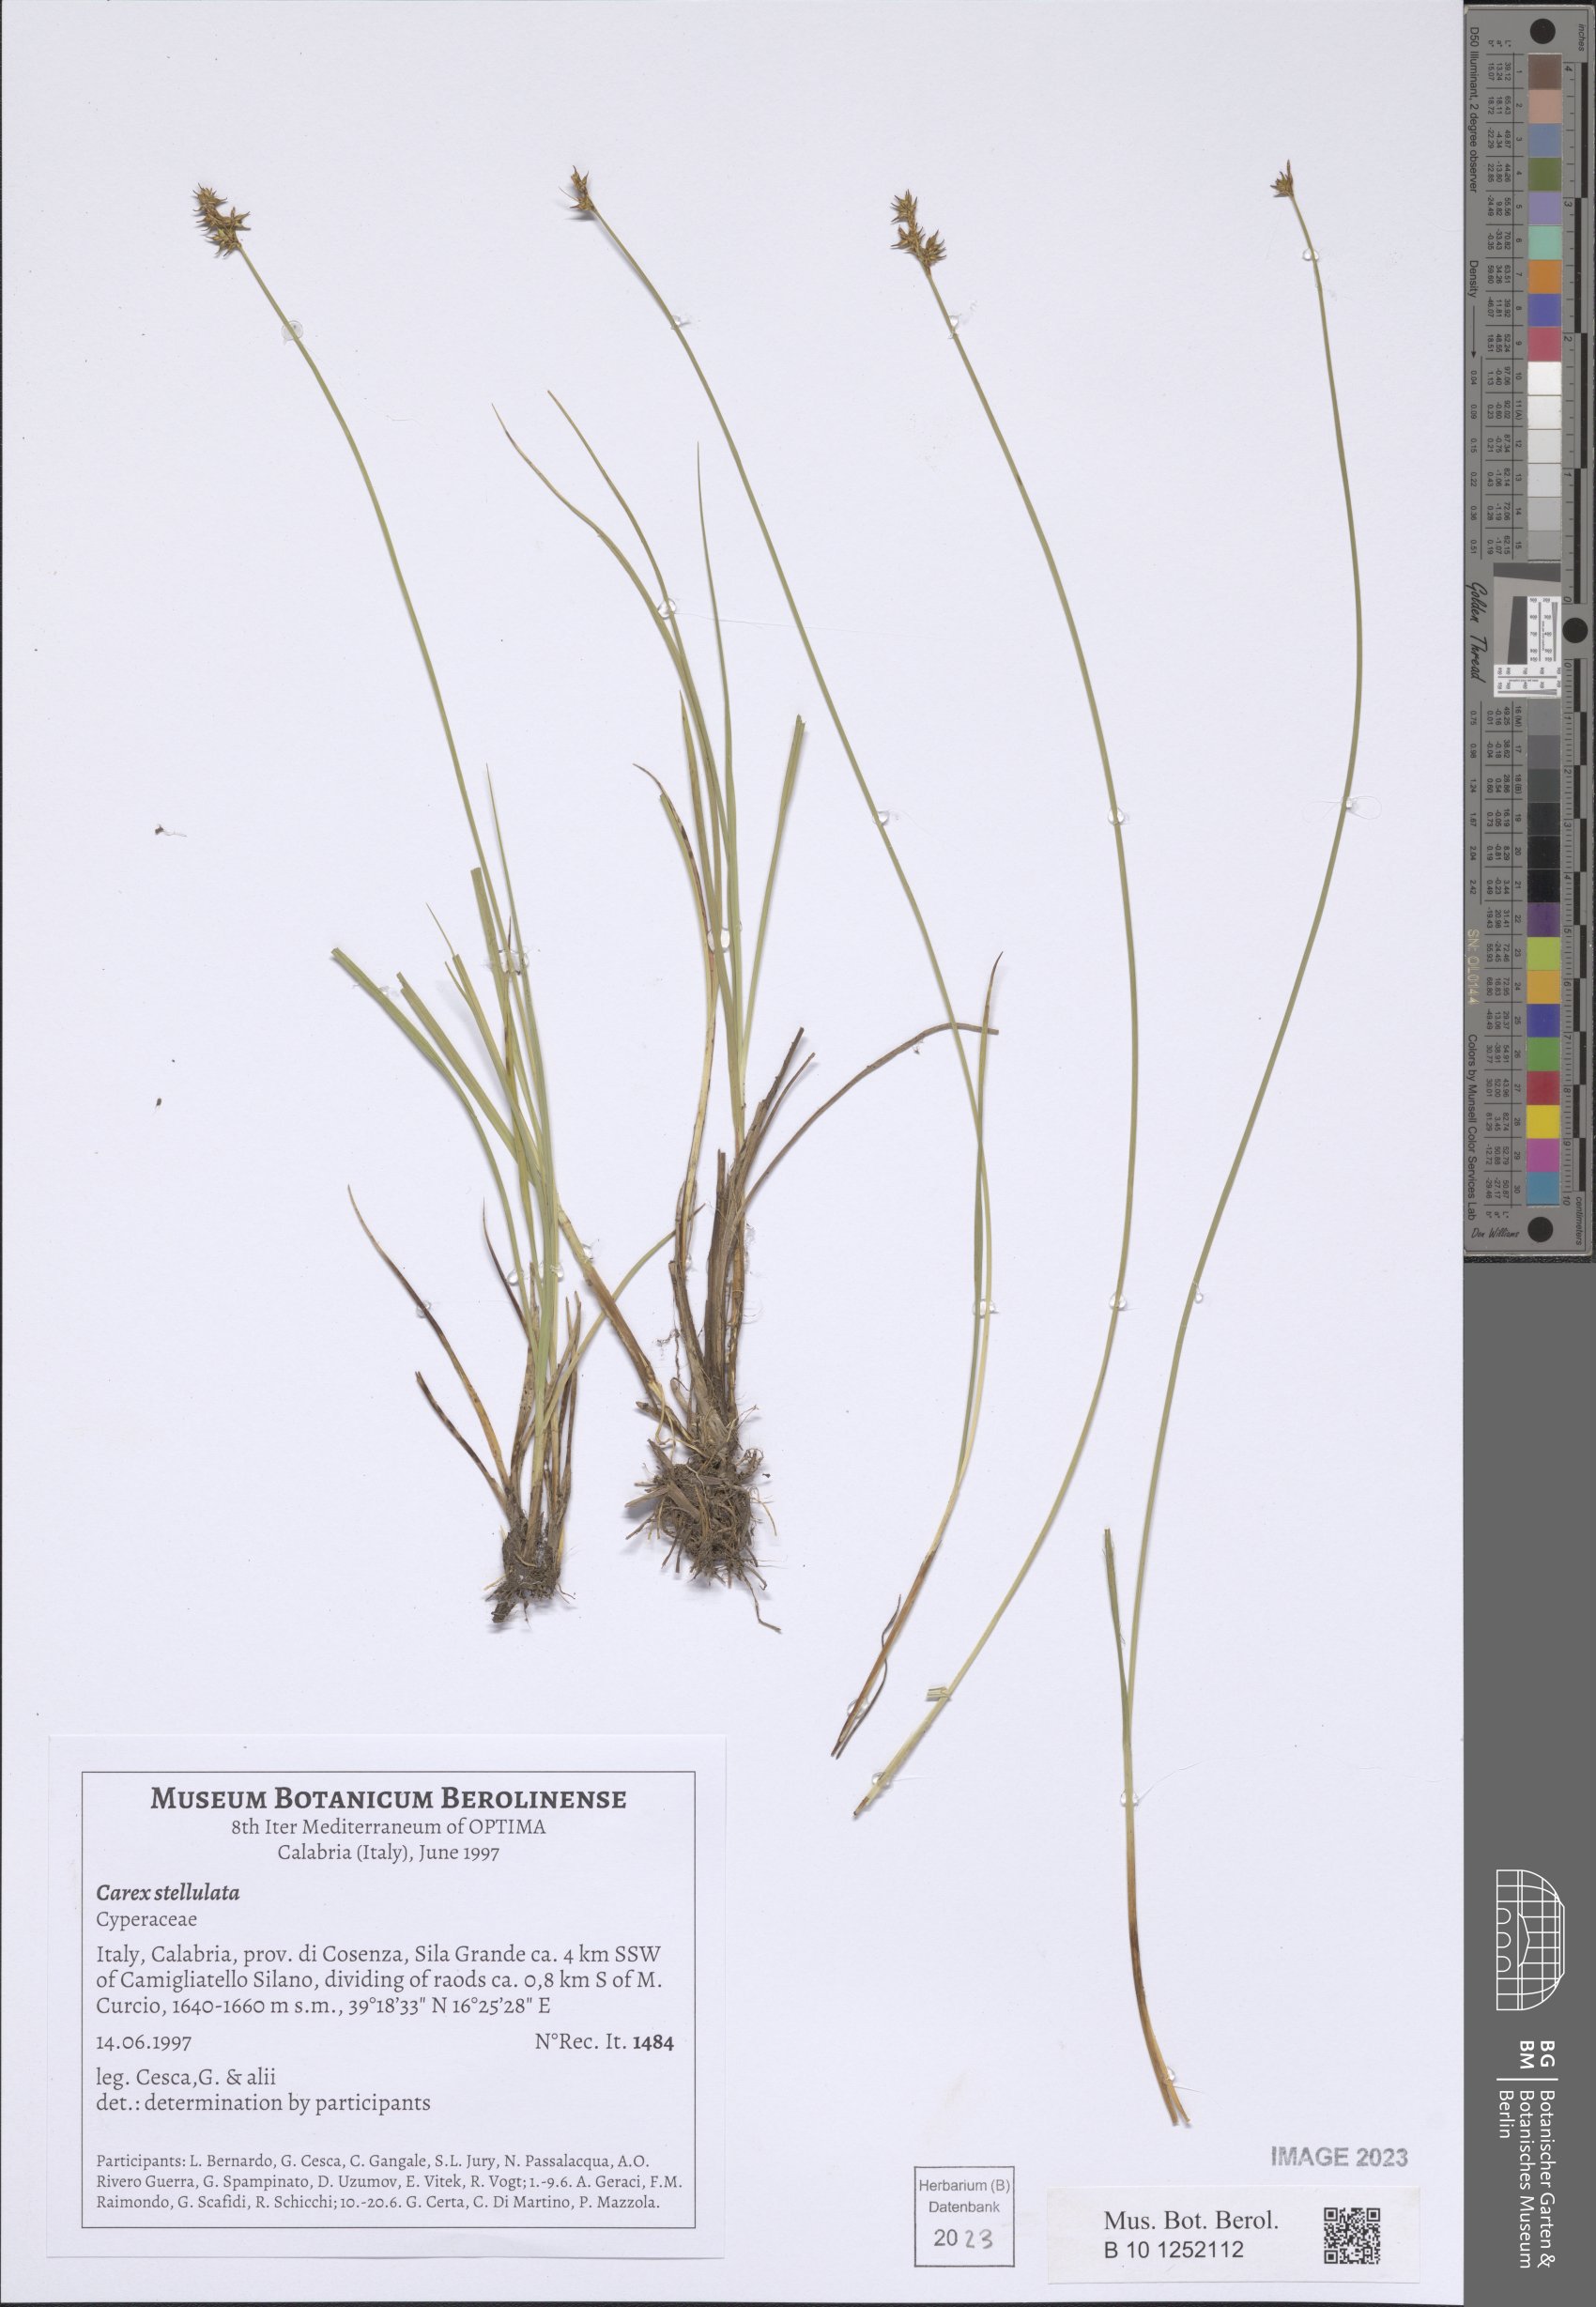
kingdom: Plantae
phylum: Tracheophyta
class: Liliopsida
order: Poales
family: Cyperaceae
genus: Carex
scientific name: Carex echinata
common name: Star sedge
